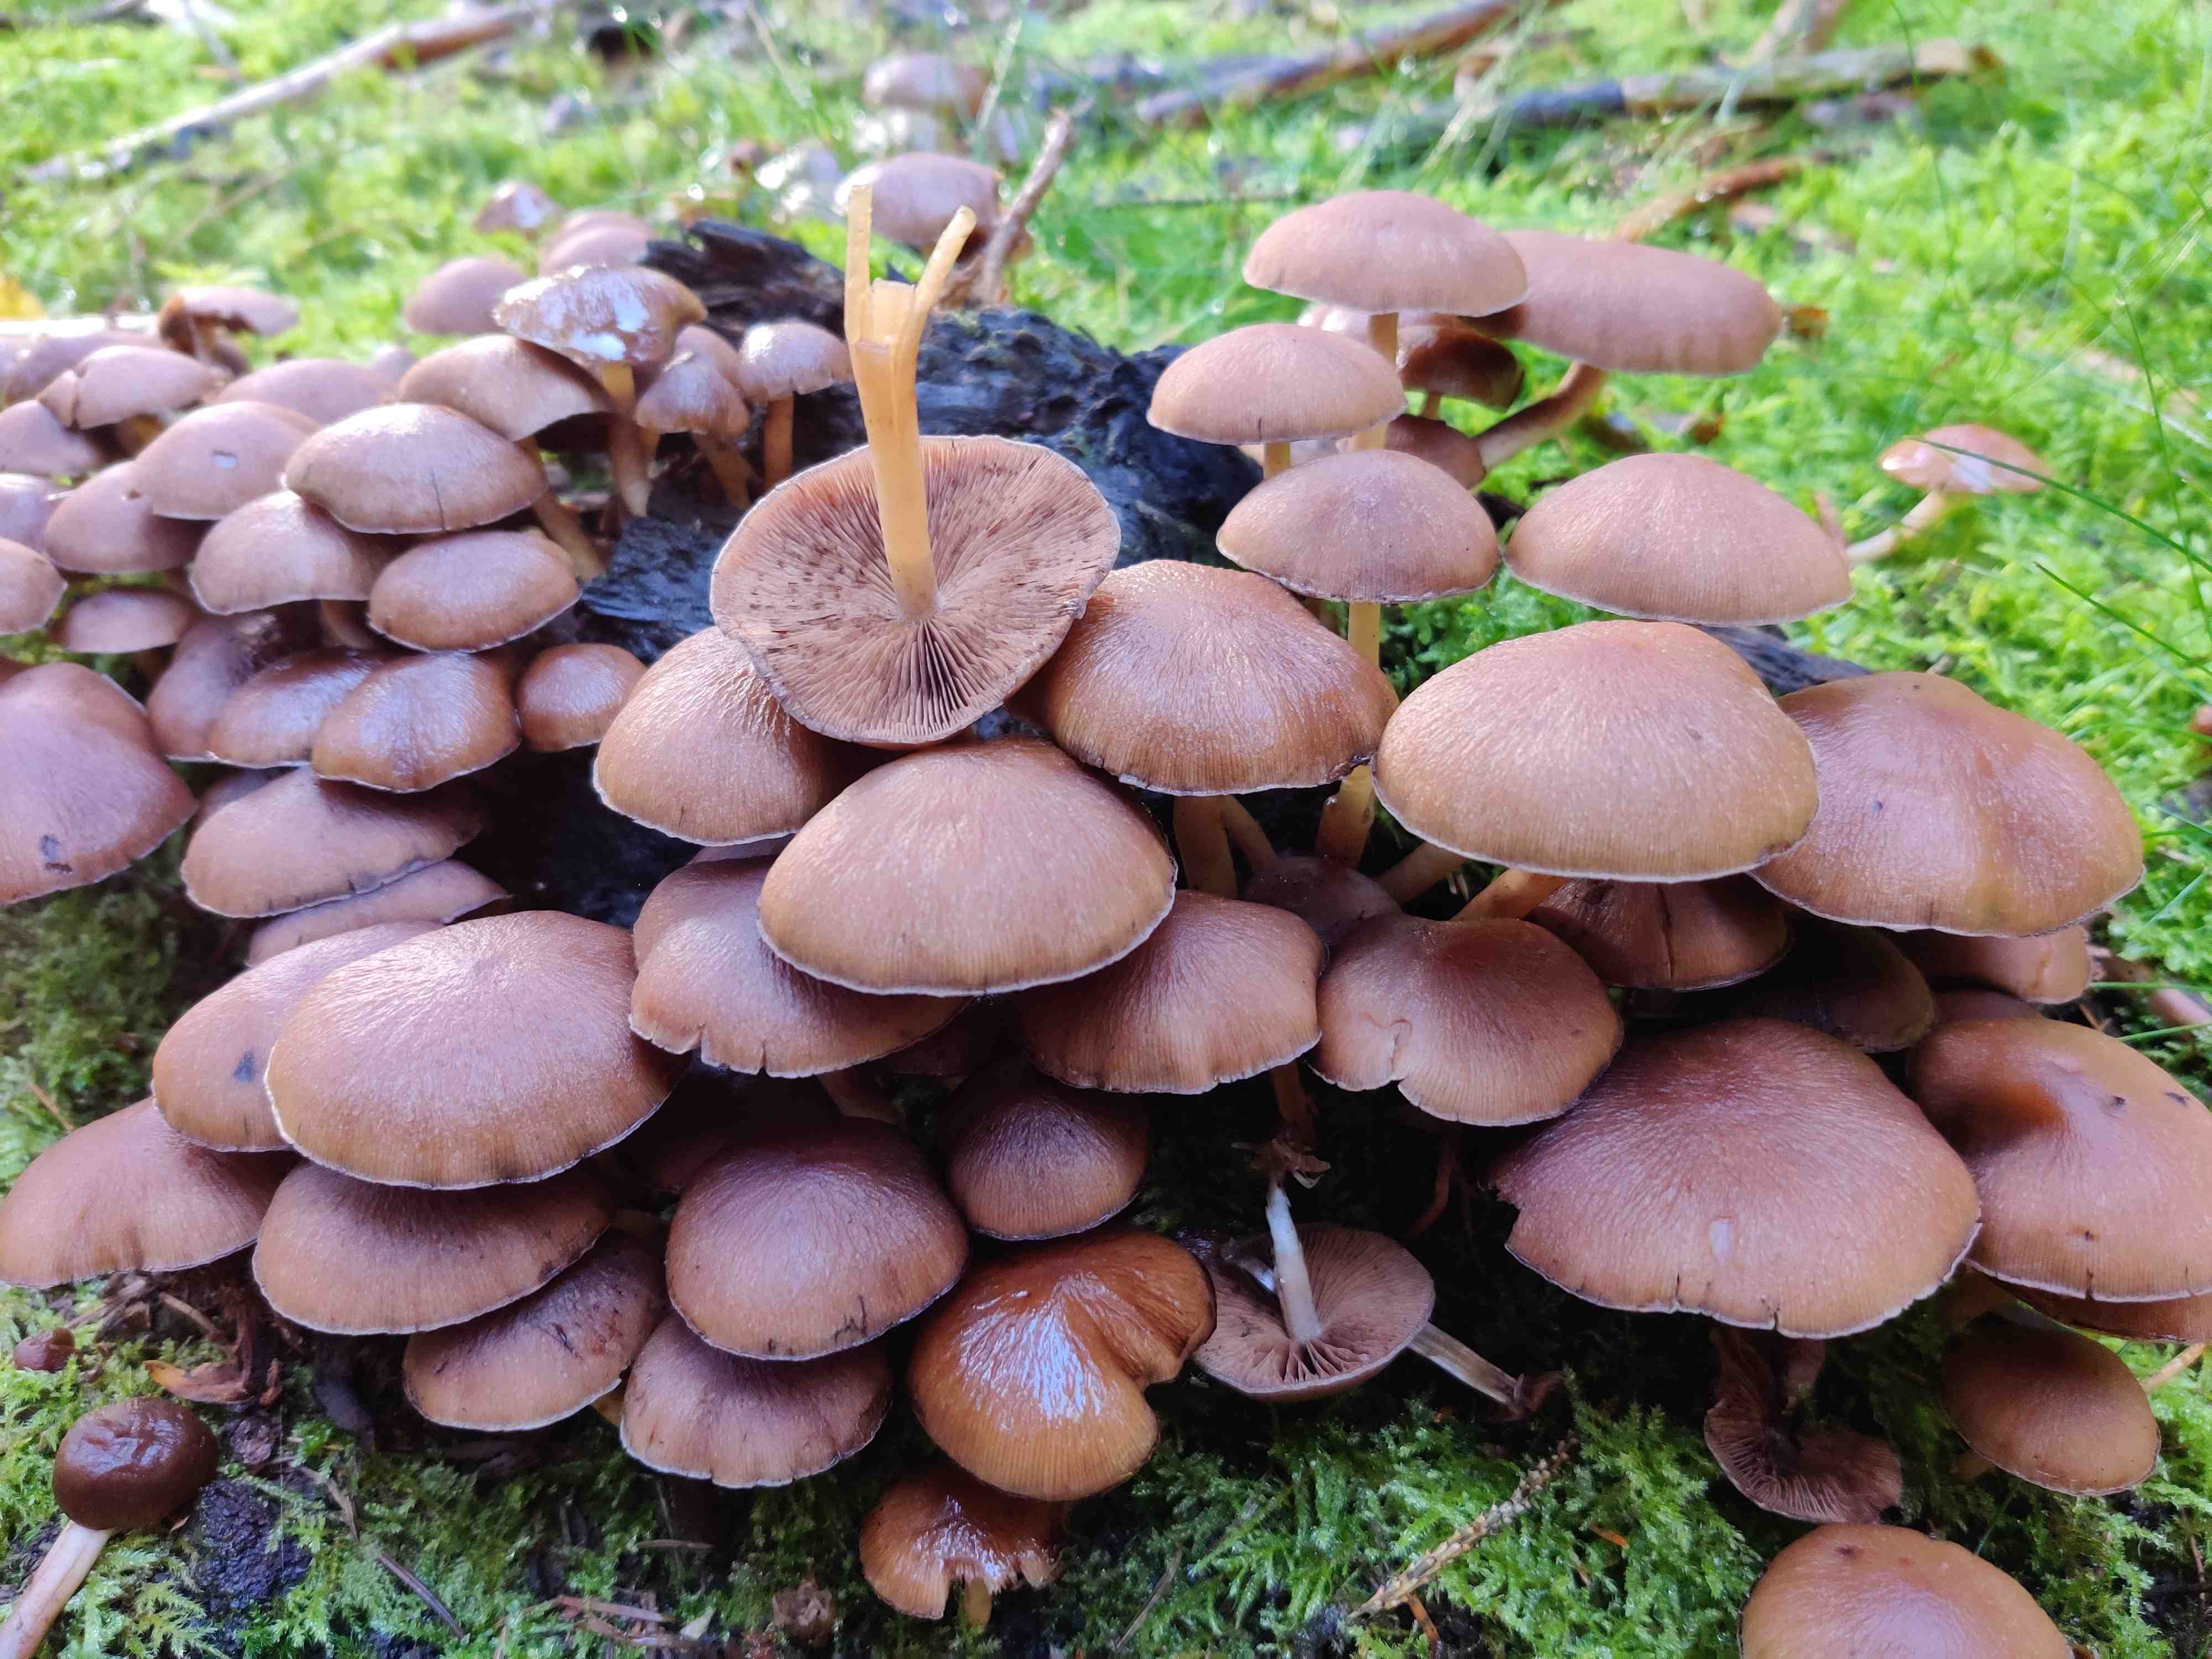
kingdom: Fungi
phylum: Basidiomycota
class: Agaricomycetes
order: Agaricales
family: Psathyrellaceae
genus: Psathyrella
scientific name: Psathyrella piluliformis
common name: lysstokket mørkhat
